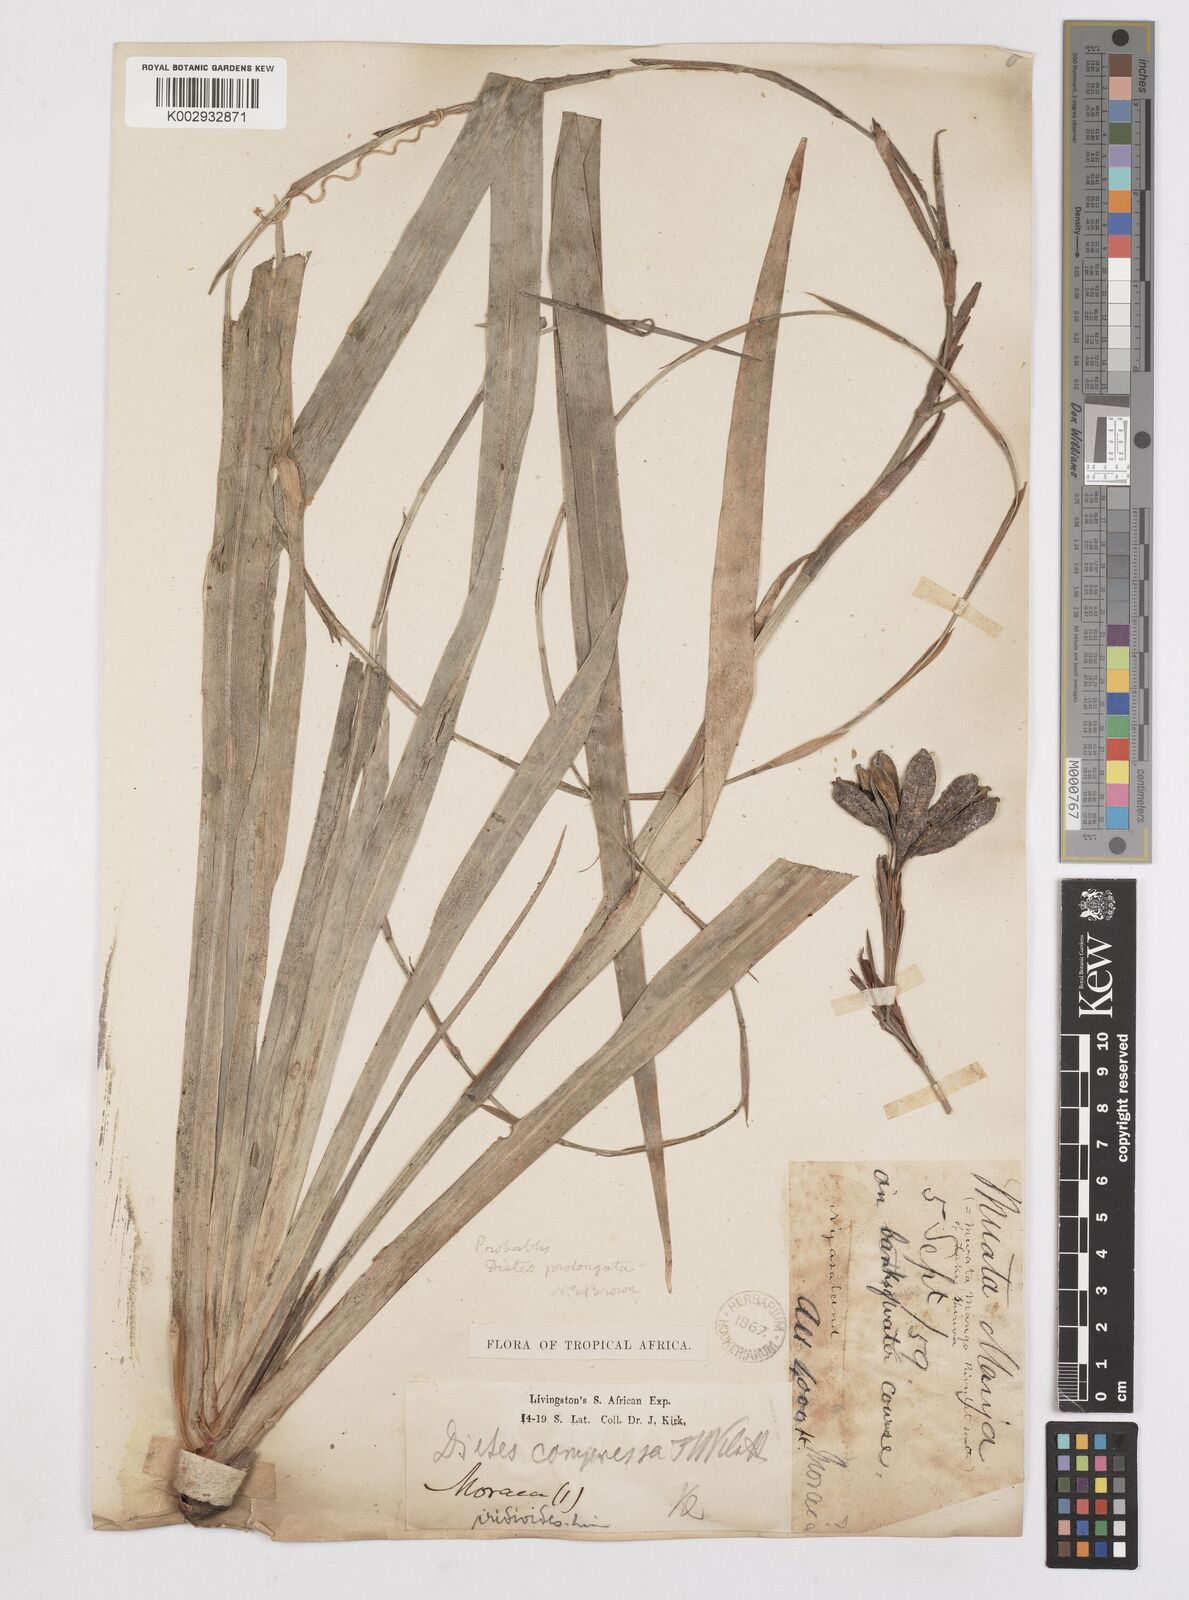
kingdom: Plantae
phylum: Tracheophyta
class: Liliopsida
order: Asparagales
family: Iridaceae
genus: Dietes
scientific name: Dietes iridioides
